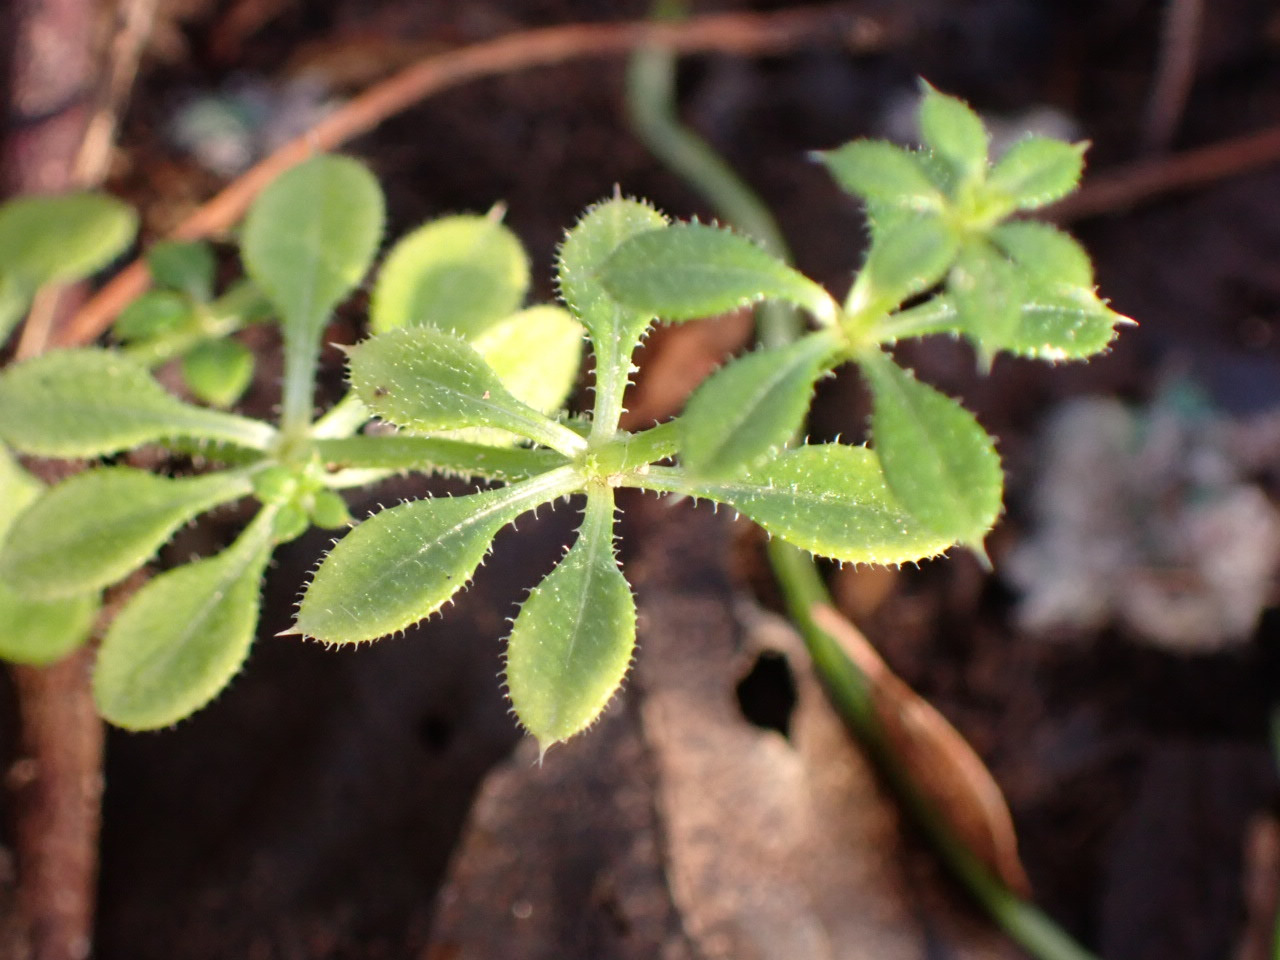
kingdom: Plantae
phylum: Tracheophyta
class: Magnoliopsida
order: Gentianales
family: Rubiaceae
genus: Galium
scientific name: Galium aparine
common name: Burre-snerre
